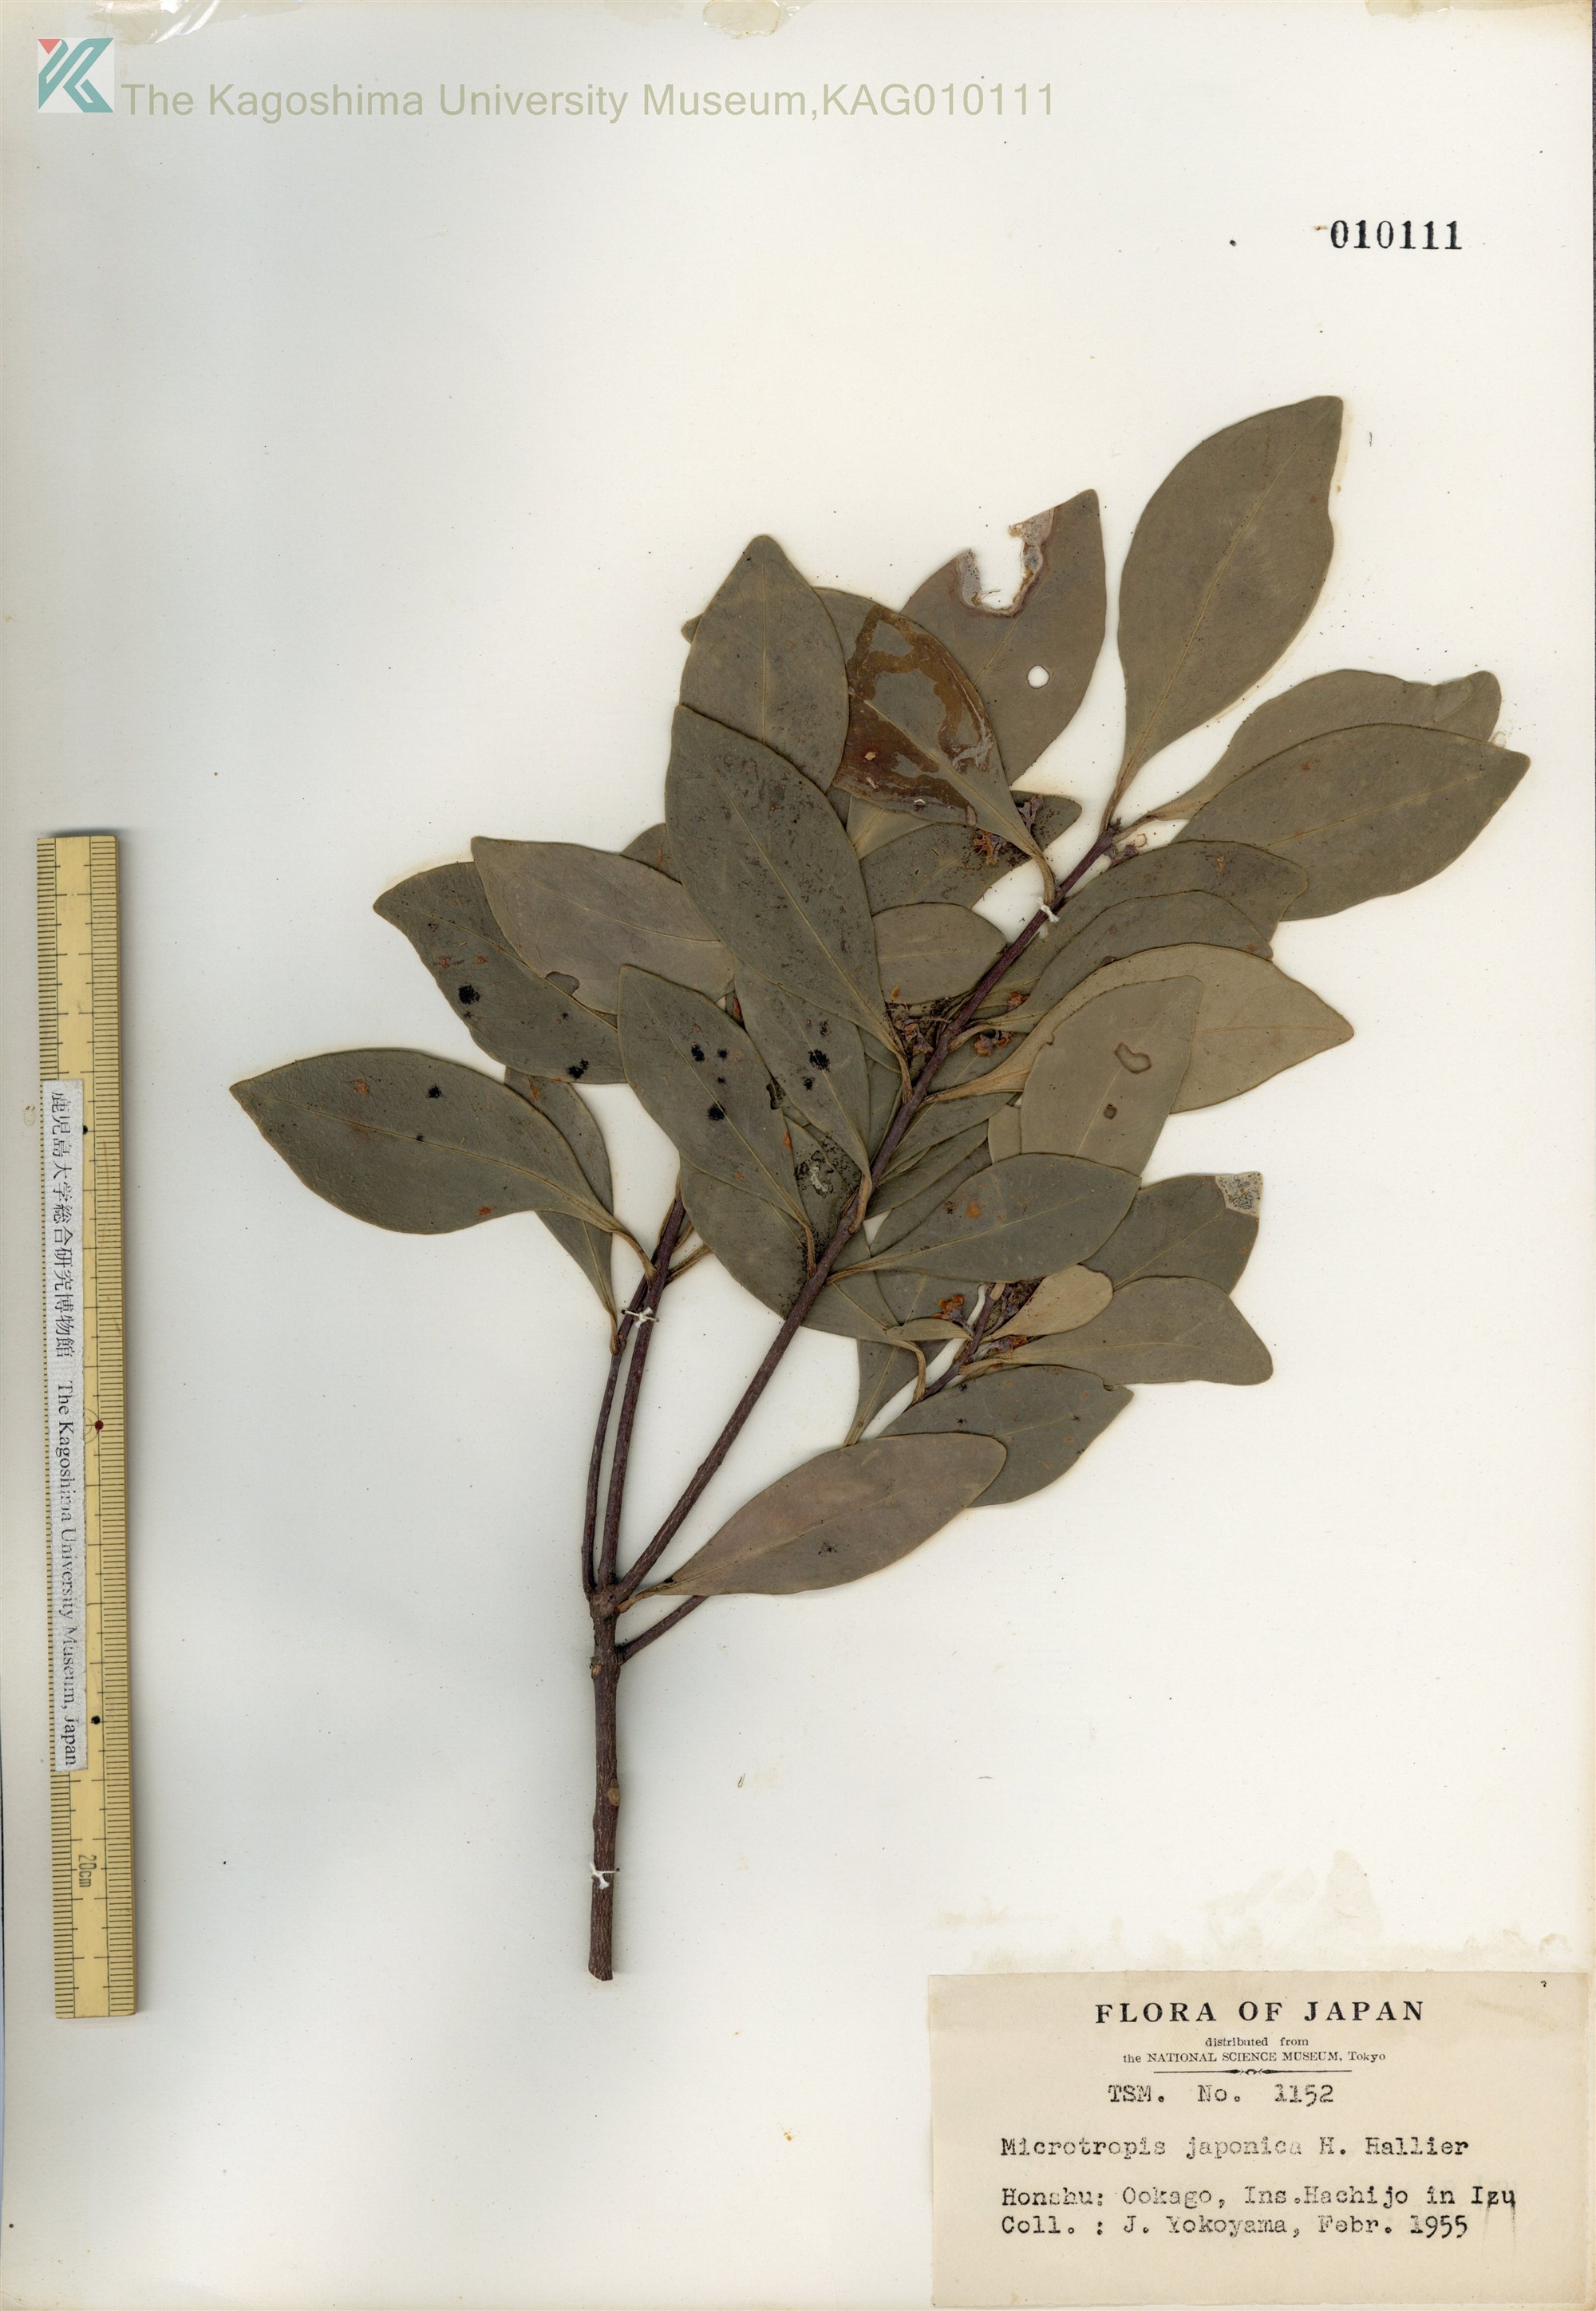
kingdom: Plantae
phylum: Tracheophyta
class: Magnoliopsida
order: Celastrales
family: Celastraceae
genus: Microtropis
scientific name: Microtropis japonica
